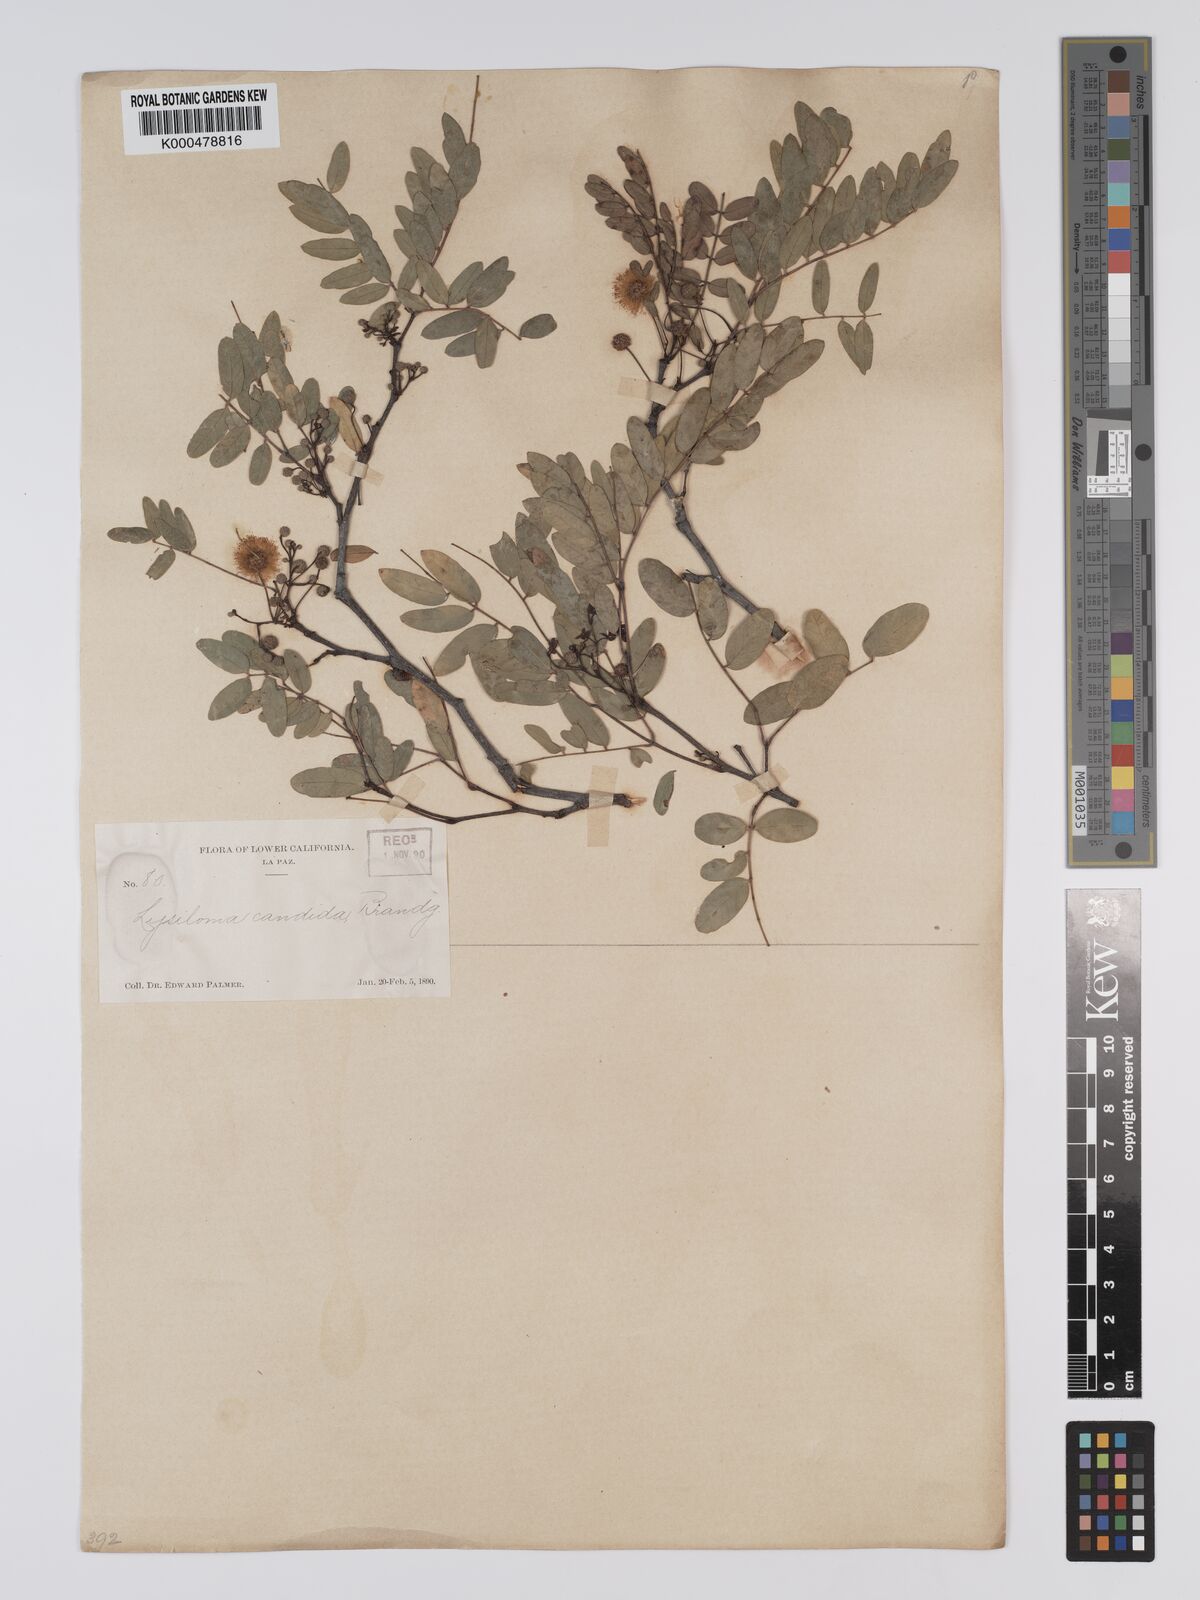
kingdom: Plantae
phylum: Tracheophyta
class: Magnoliopsida
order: Fabales
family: Fabaceae
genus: Lysiloma
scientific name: Lysiloma candidum
